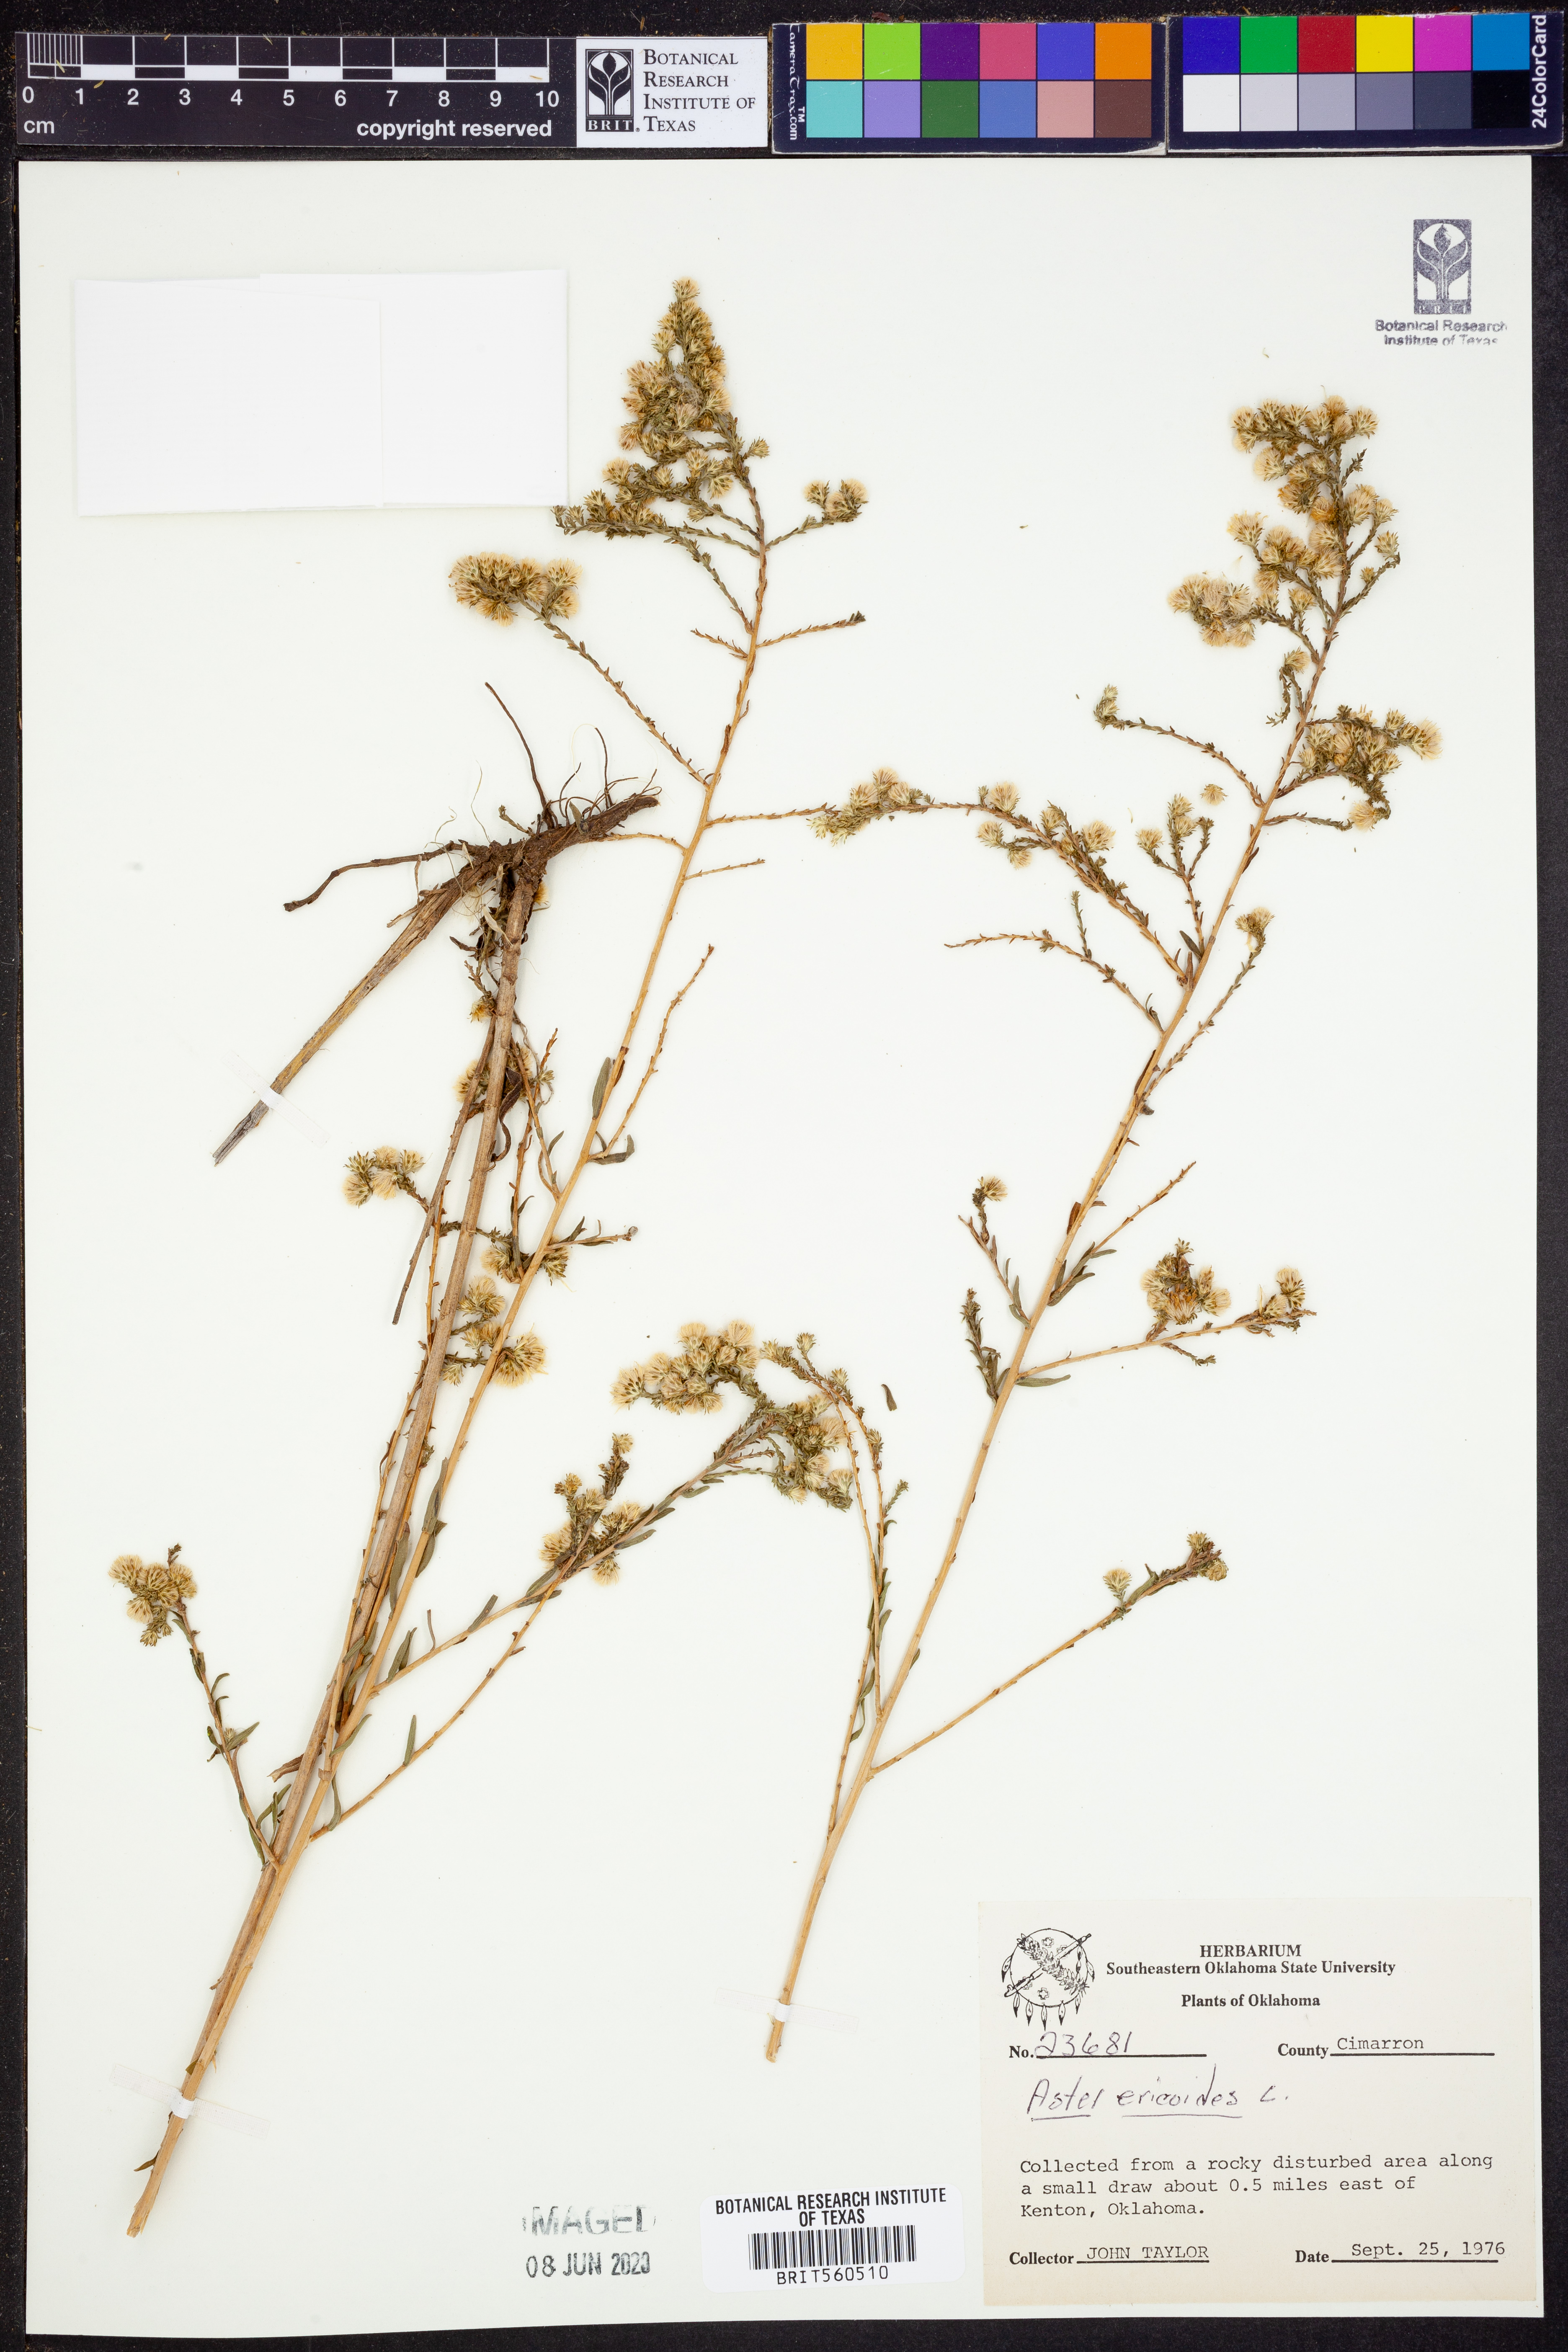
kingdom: Plantae
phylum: Tracheophyta
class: Magnoliopsida
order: Asterales
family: Asteraceae
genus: Symphyotrichum
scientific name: Symphyotrichum ericoides
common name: Heath aster
